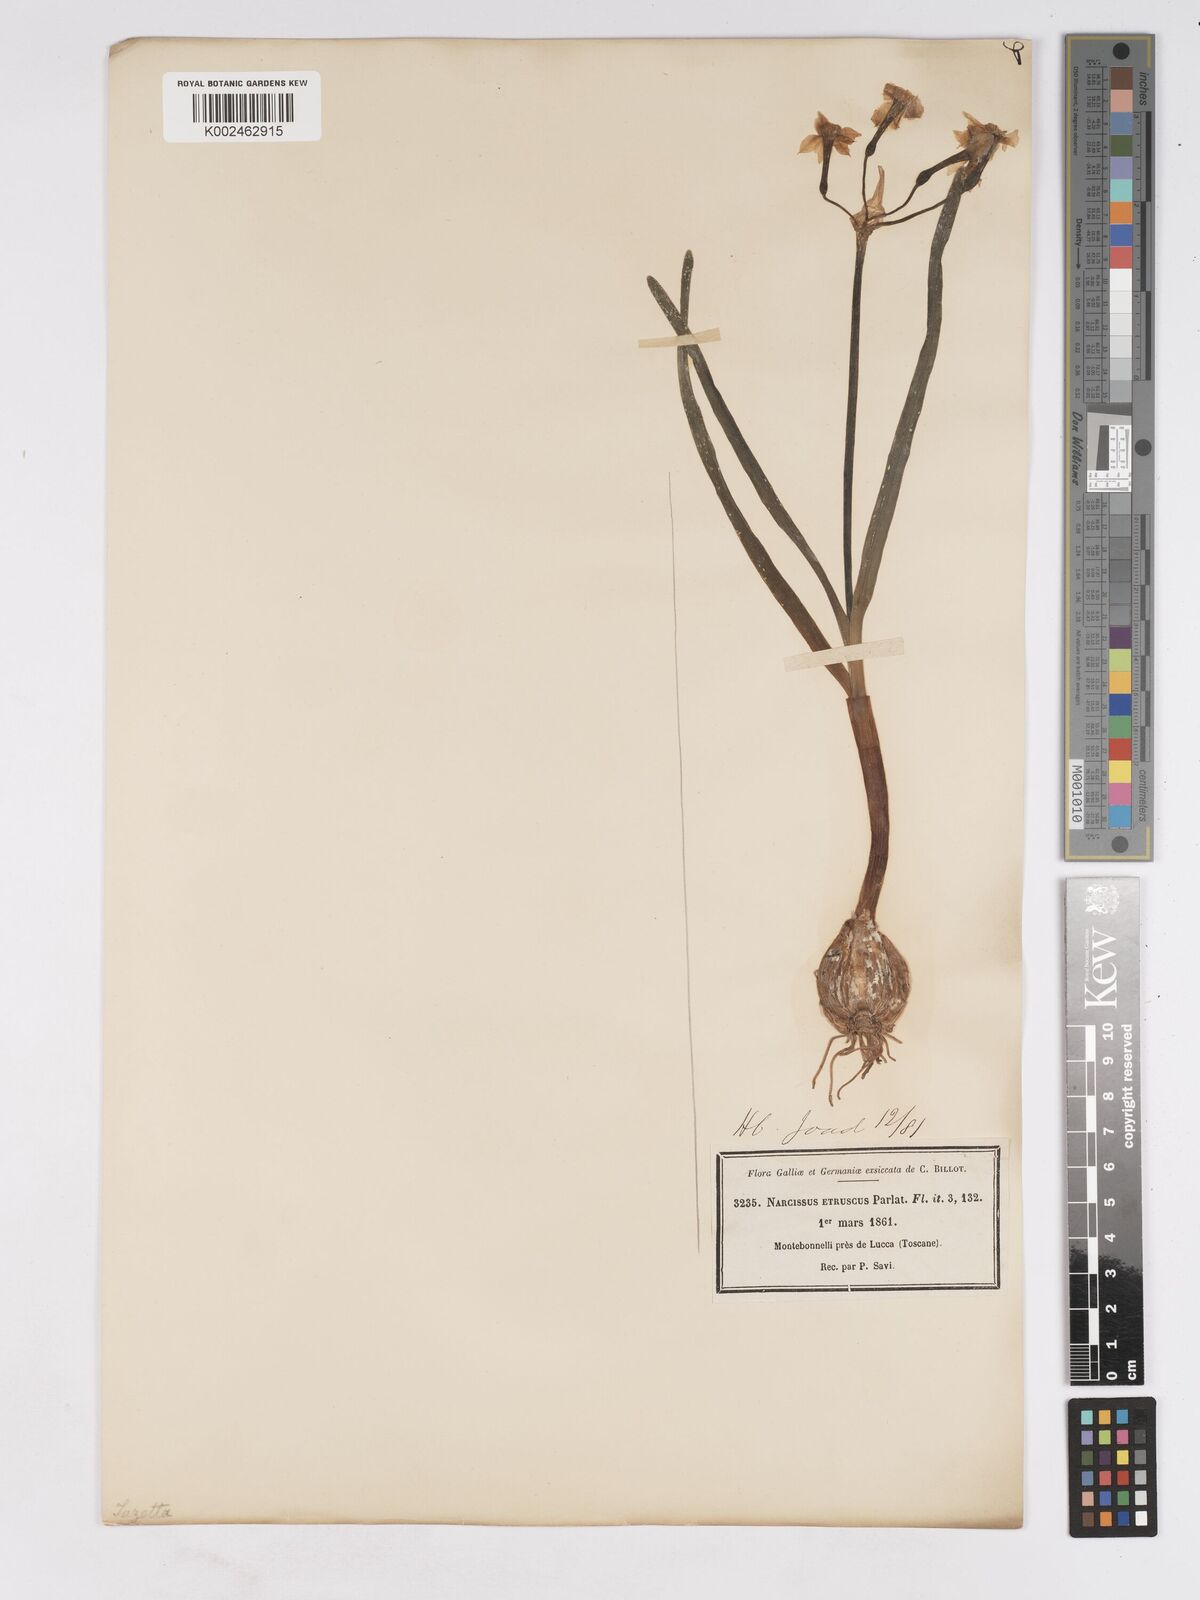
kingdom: Plantae
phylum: Tracheophyta
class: Liliopsida
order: Asparagales
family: Amaryllidaceae
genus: Narcissus
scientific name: Narcissus tazetta
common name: Bunch-flowered daffodil
